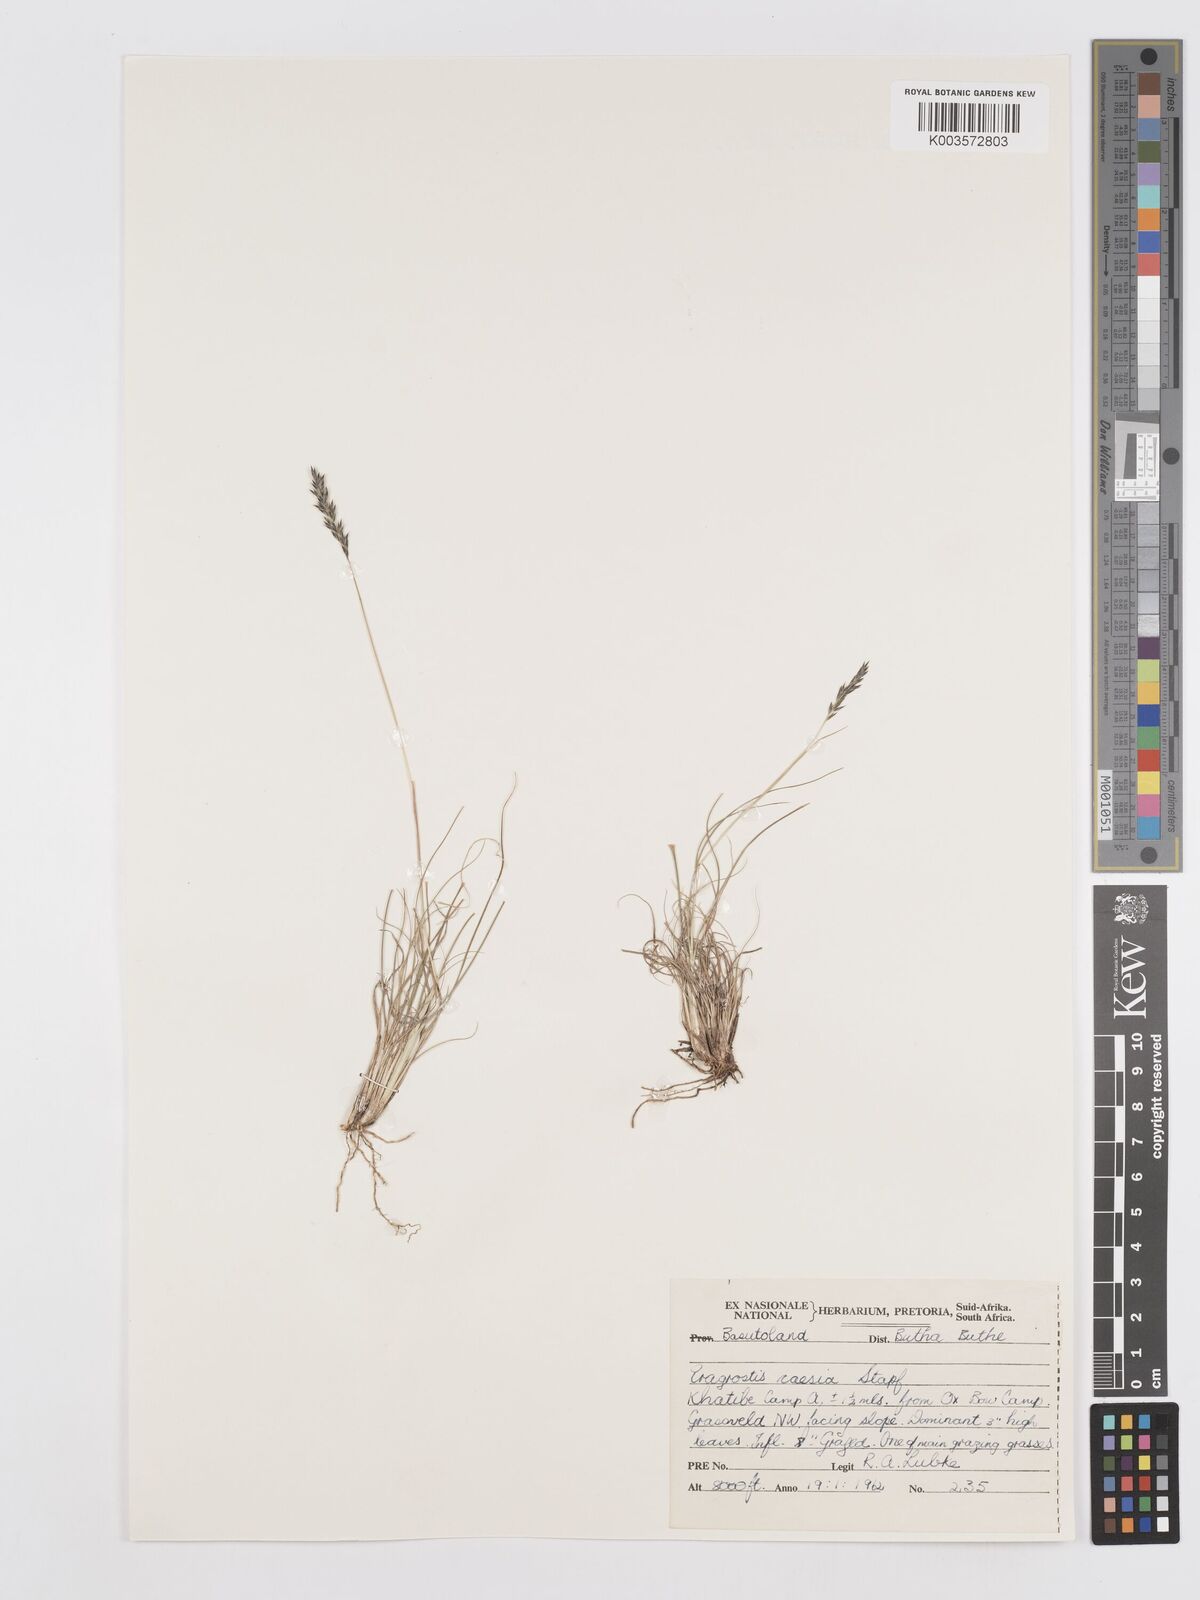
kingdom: Plantae
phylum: Tracheophyta
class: Liliopsida
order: Poales
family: Poaceae
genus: Eragrostis
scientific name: Eragrostis caesia
